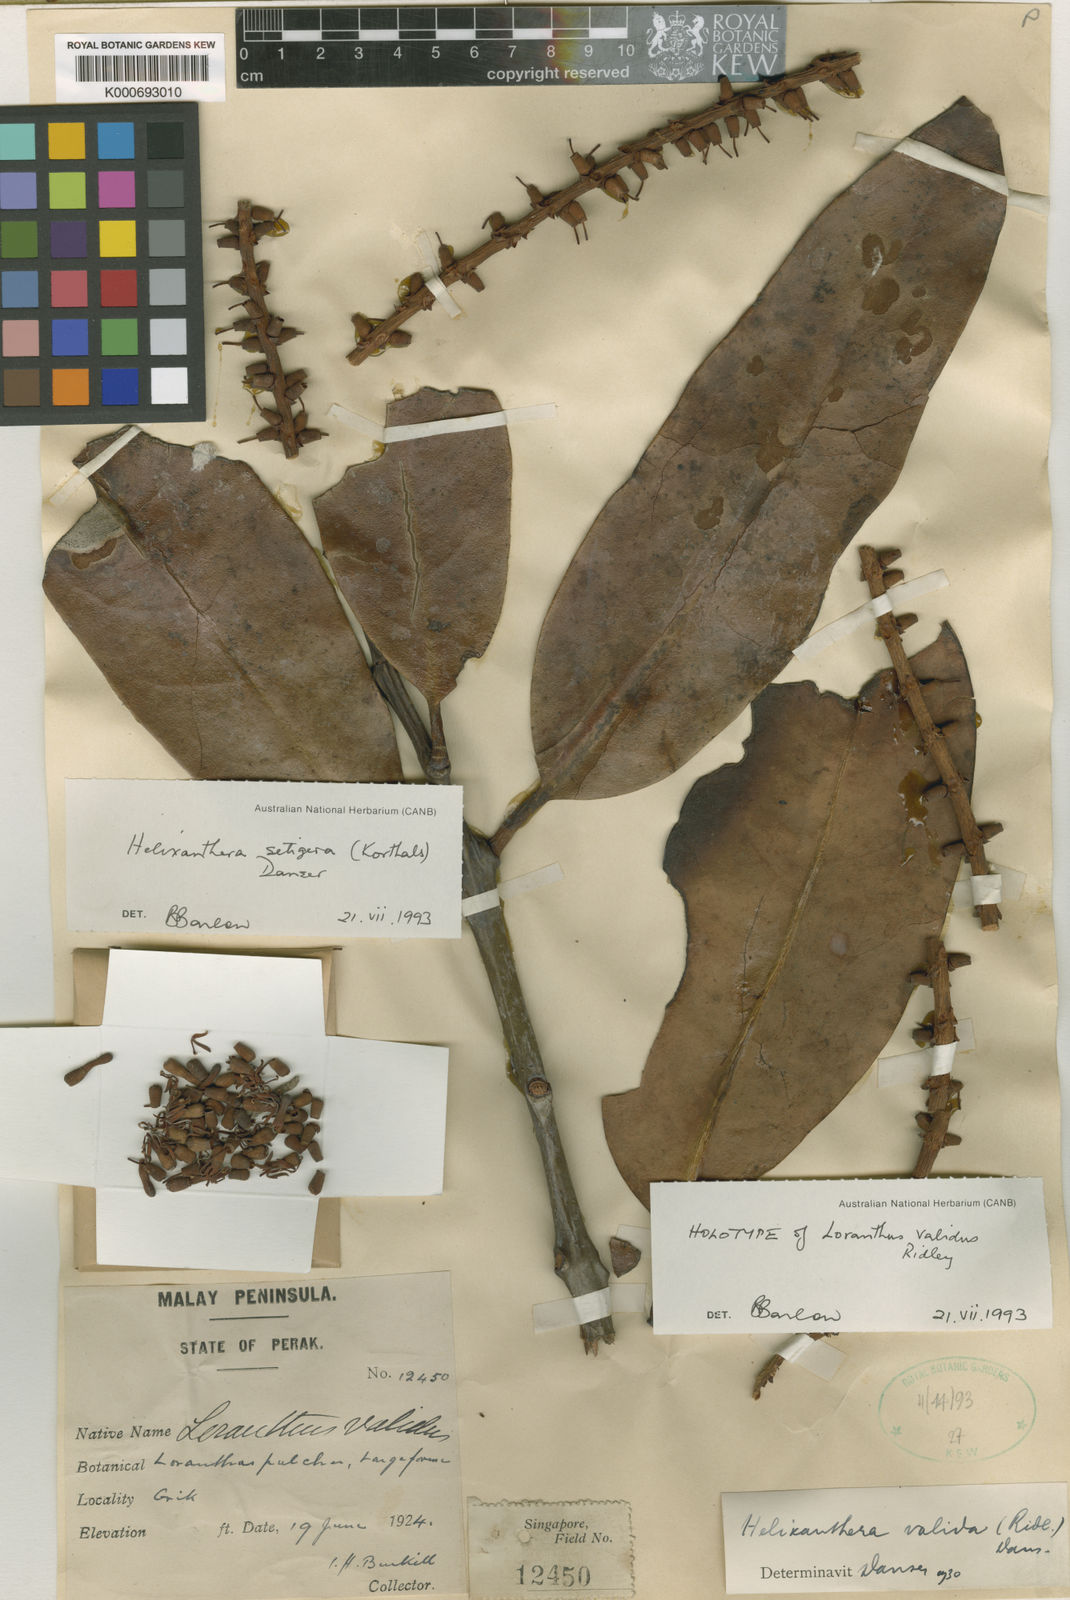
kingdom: Plantae
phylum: Tracheophyta
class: Magnoliopsida
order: Santalales
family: Loranthaceae
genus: Helixanthera
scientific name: Helixanthera setigera
